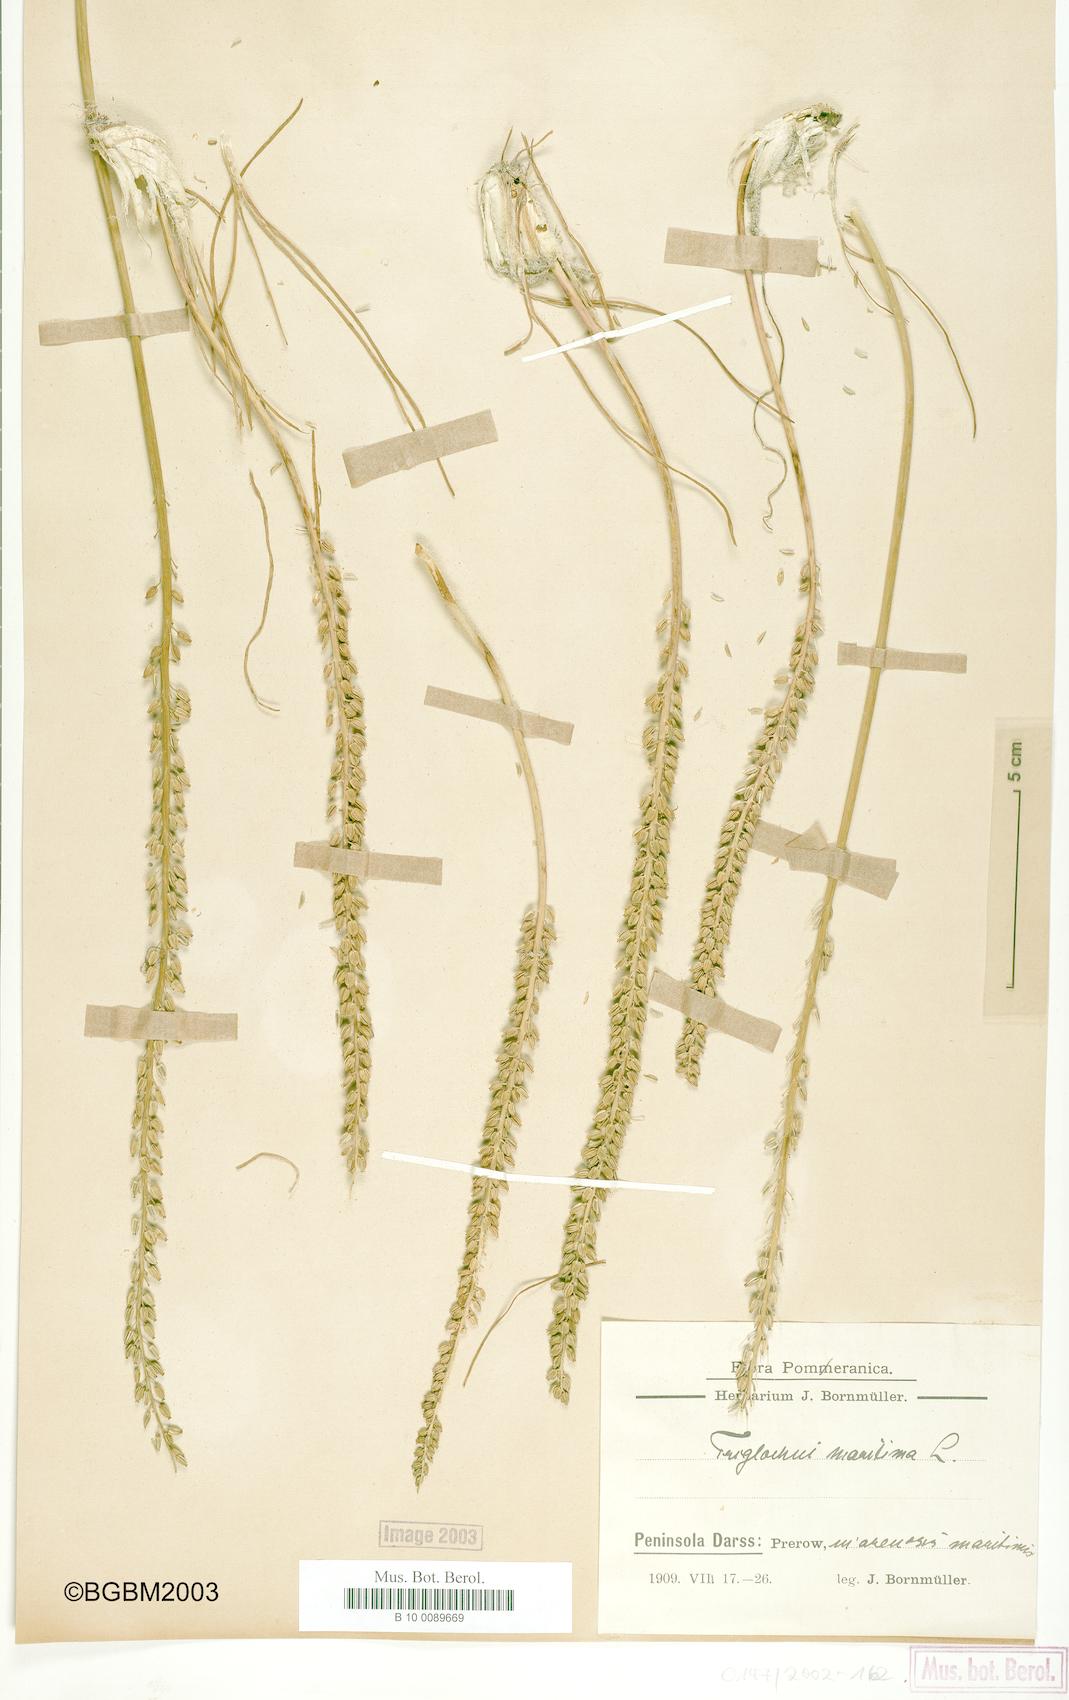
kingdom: Plantae
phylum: Tracheophyta
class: Liliopsida
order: Alismatales
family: Juncaginaceae
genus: Triglochin
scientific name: Triglochin maritima
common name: Sea arrowgrass
